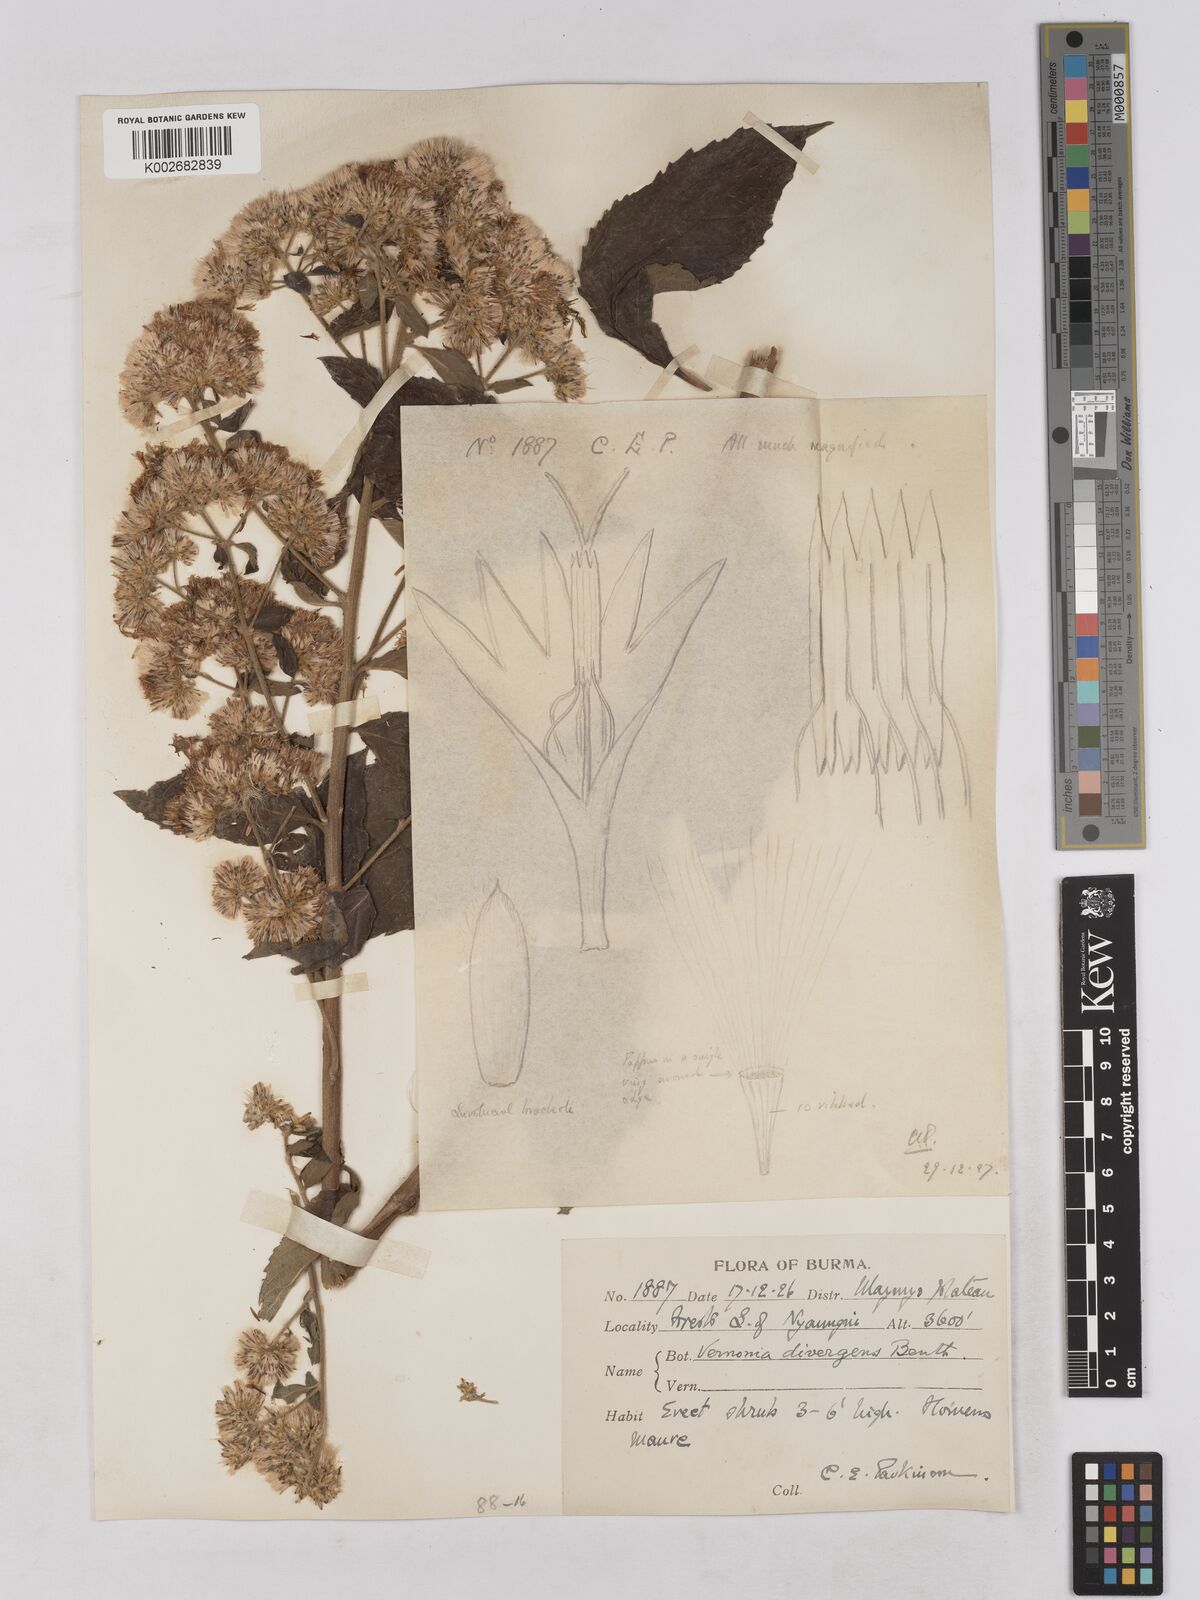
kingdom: Plantae
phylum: Tracheophyta
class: Magnoliopsida
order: Asterales
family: Asteraceae
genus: Acilepis
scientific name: Acilepis divergens
